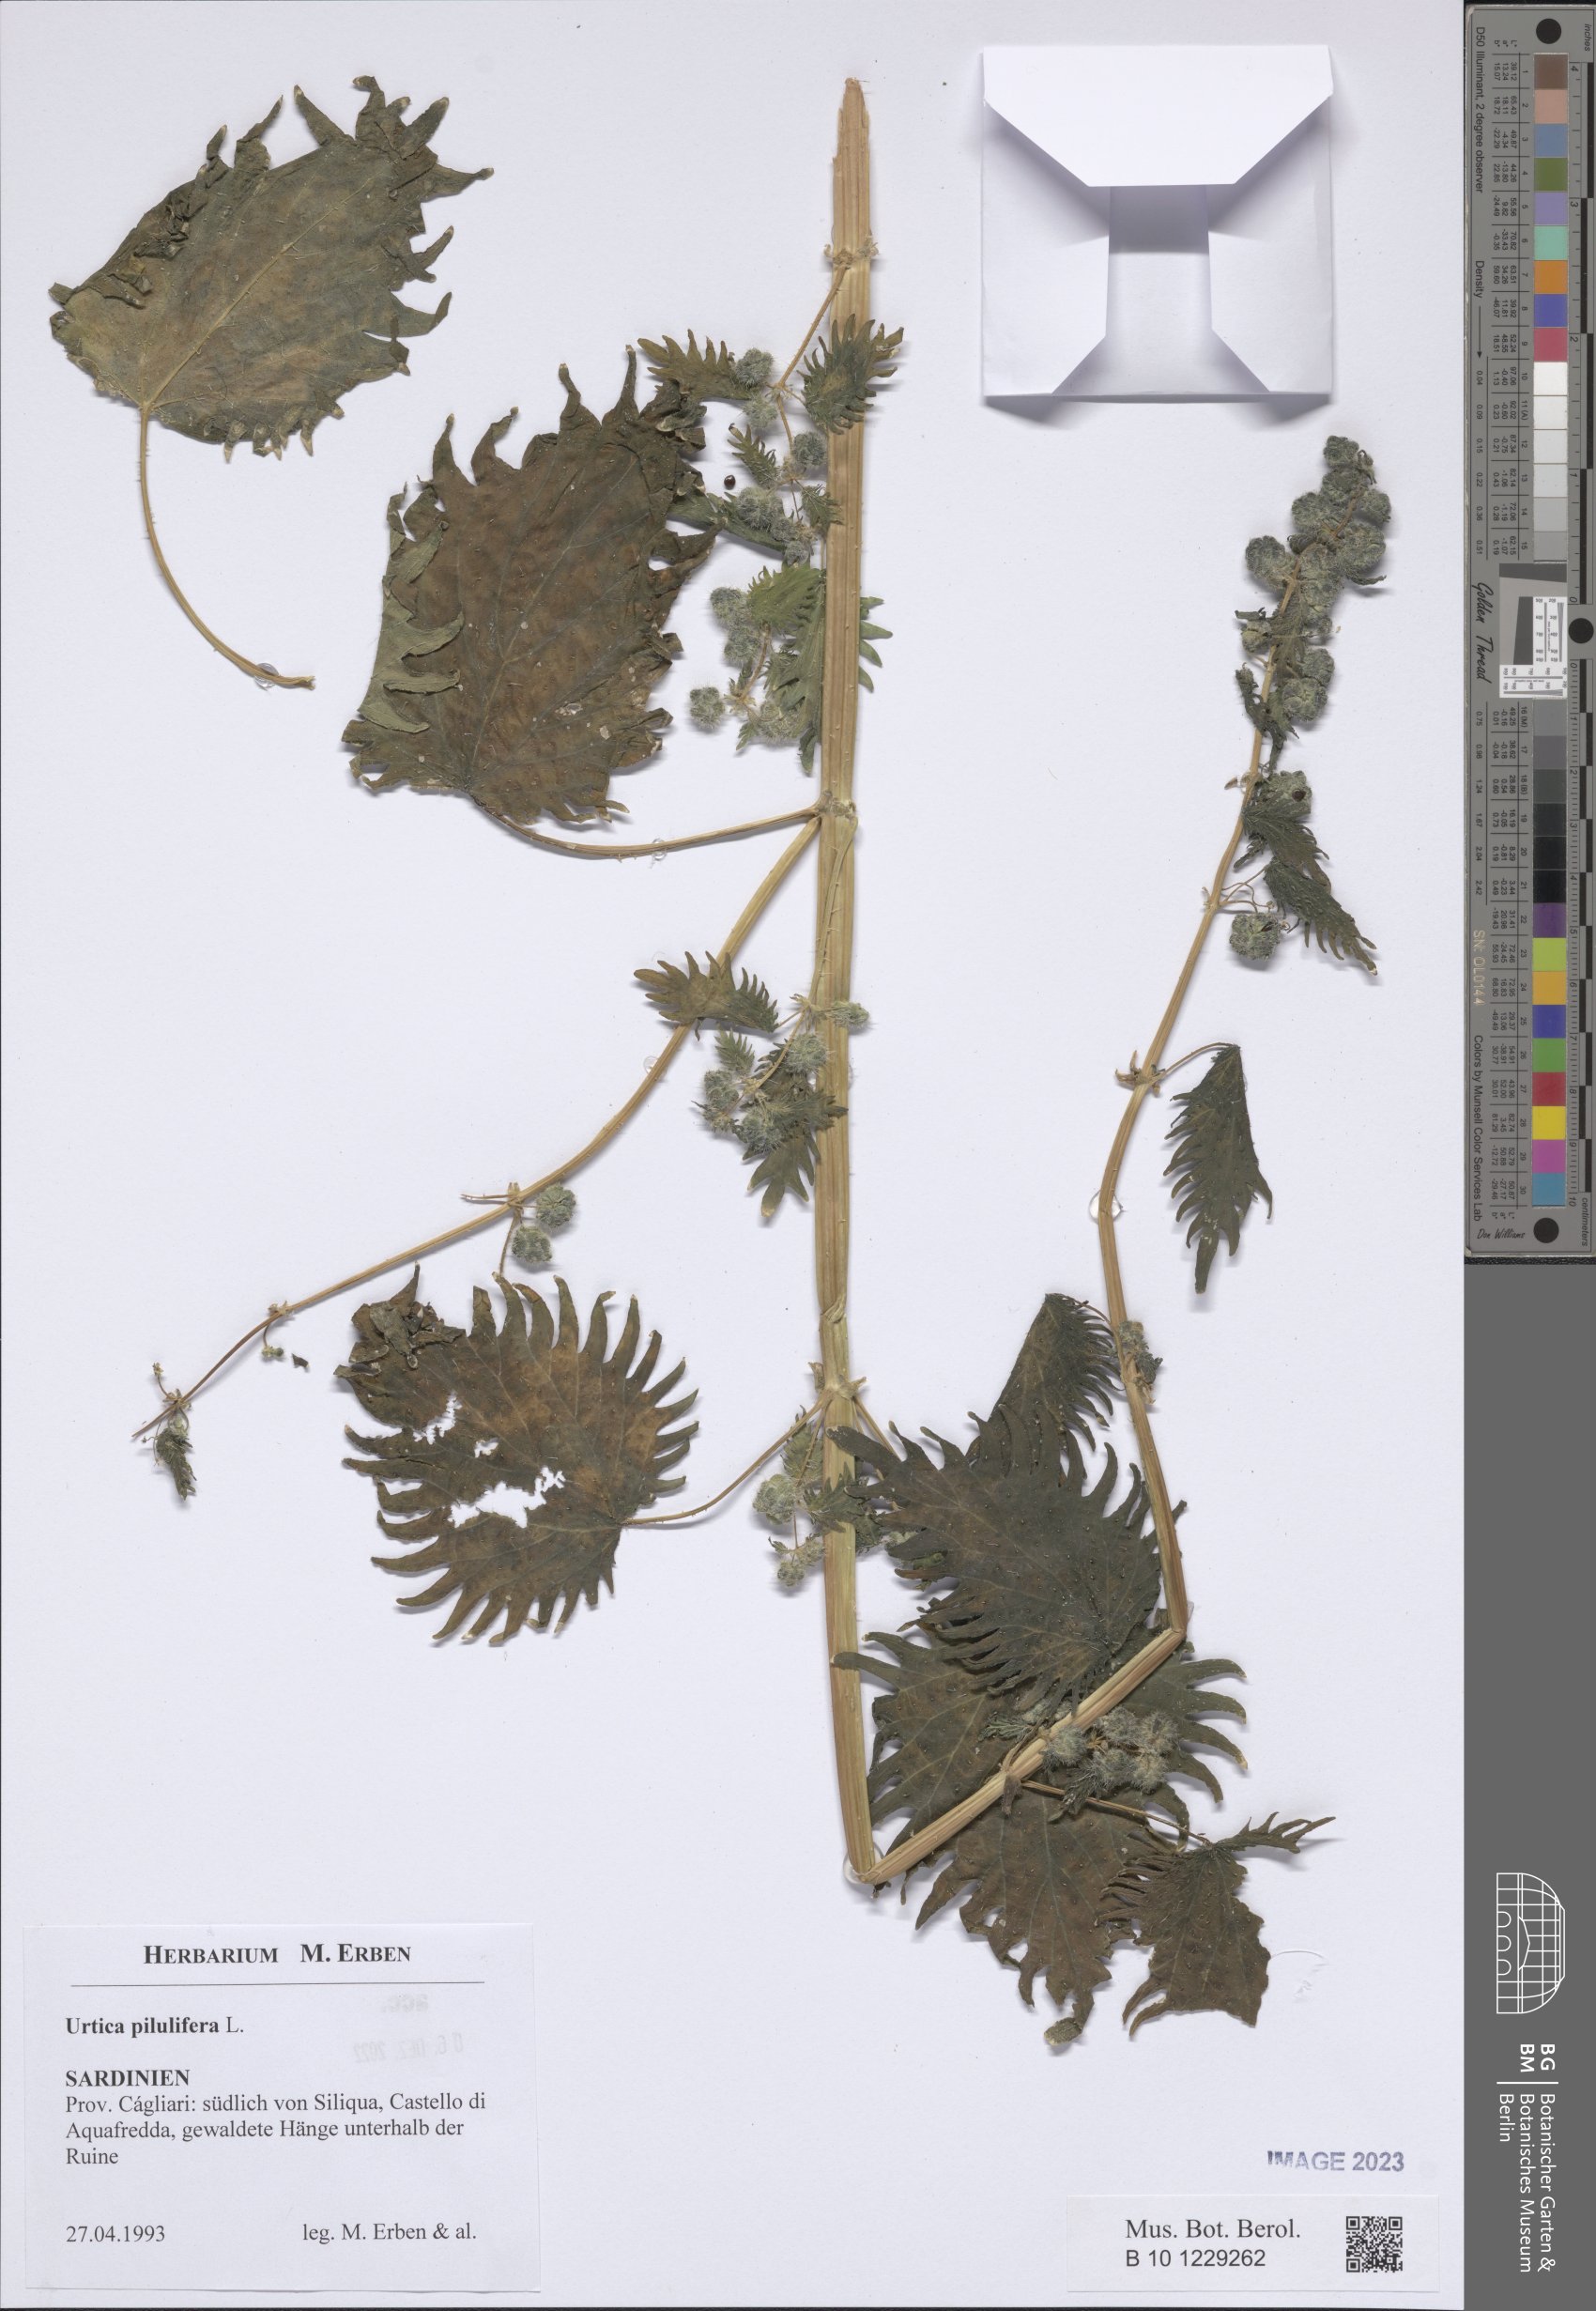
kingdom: Plantae
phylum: Tracheophyta
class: Magnoliopsida
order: Rosales
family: Urticaceae
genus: Urtica
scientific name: Urtica pilulifera
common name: Roman nettle
